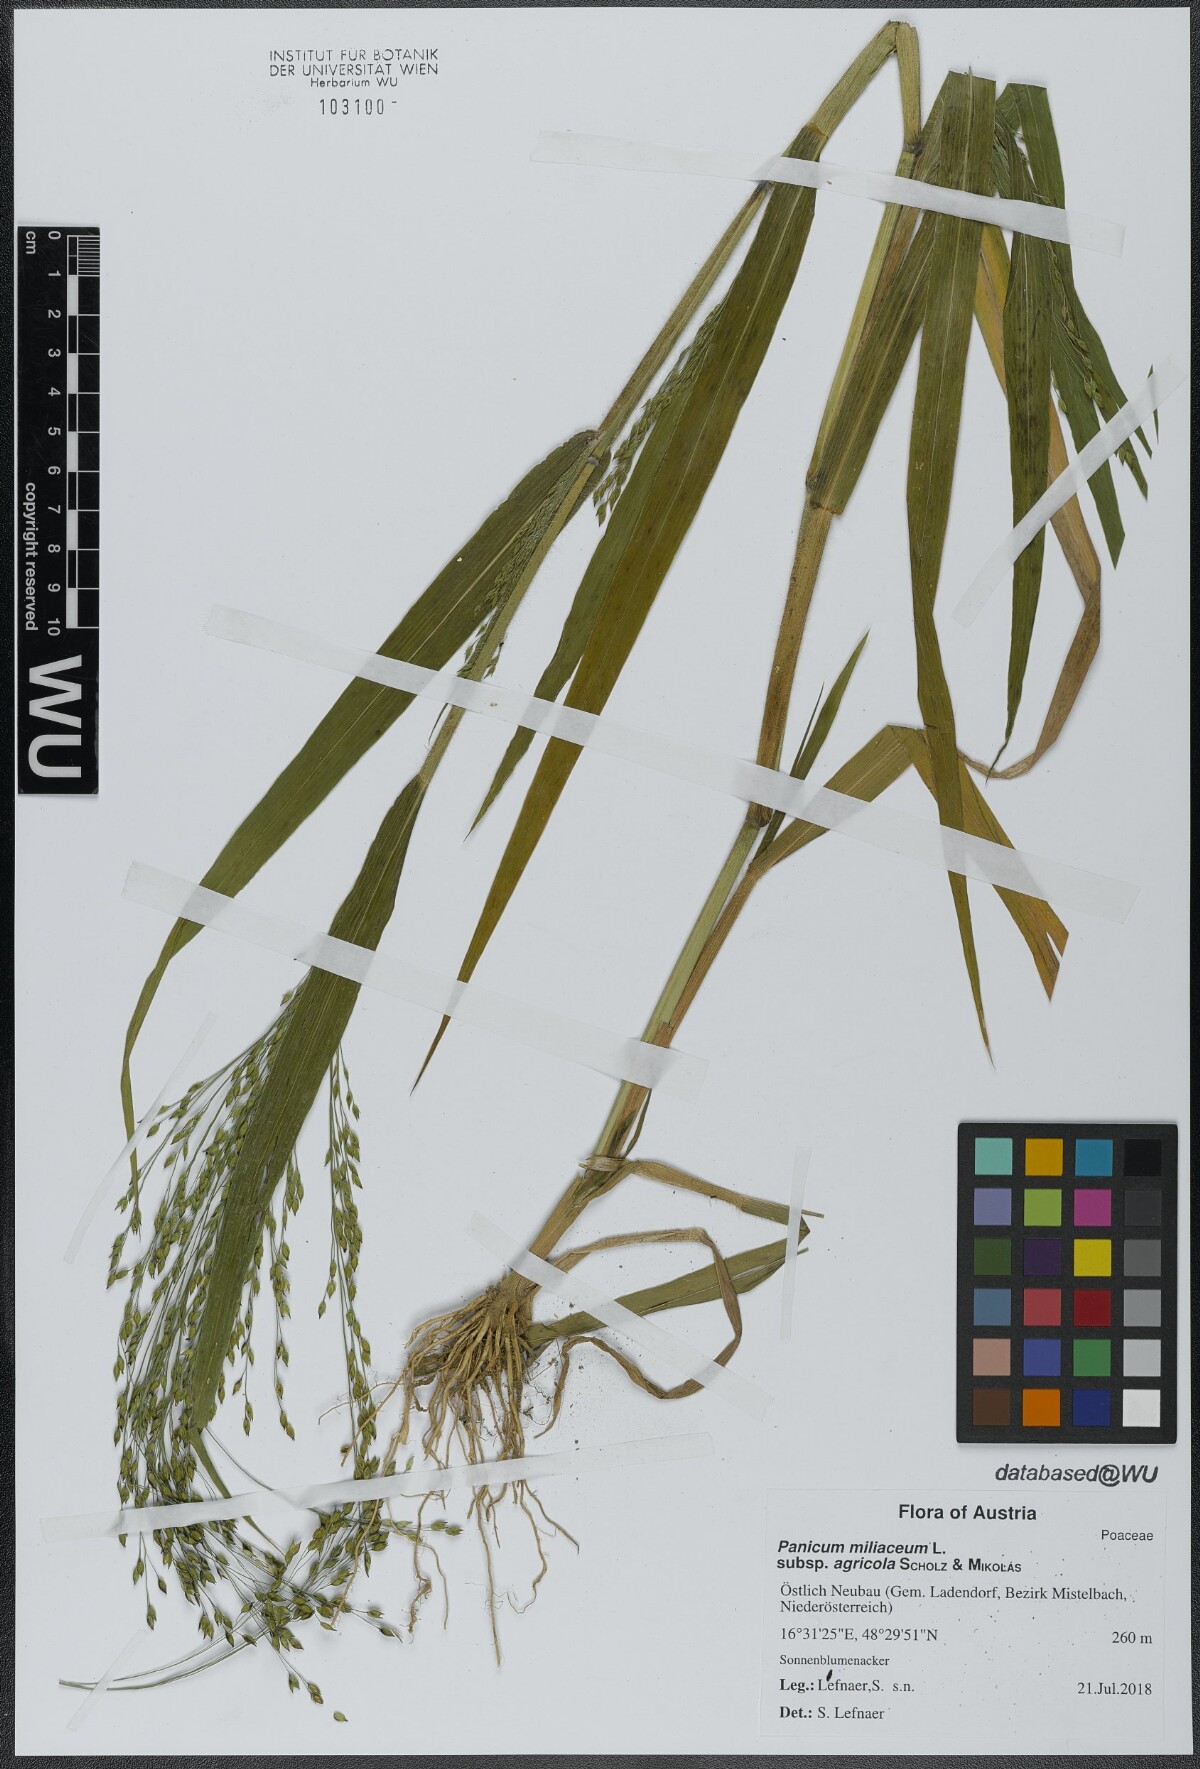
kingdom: Plantae
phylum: Tracheophyta
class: Liliopsida
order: Poales
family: Poaceae
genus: Panicum
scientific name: Panicum miliaceum
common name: Common millet
